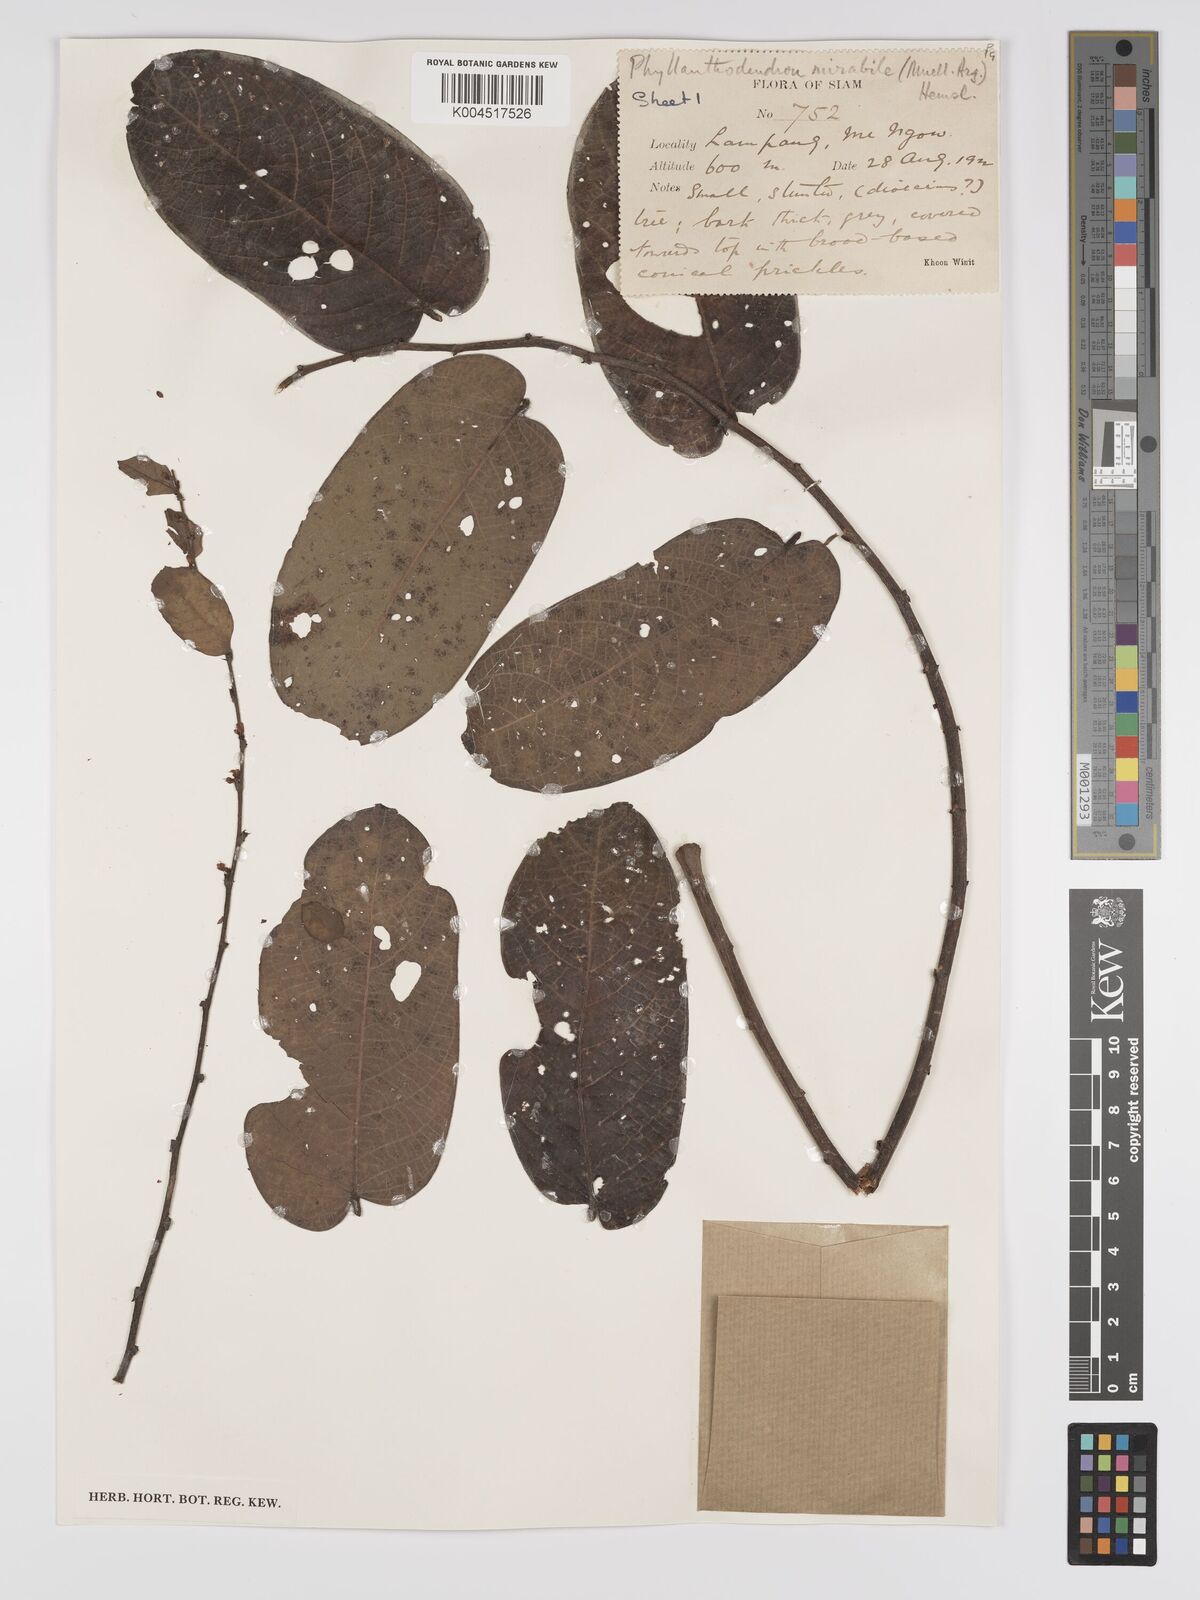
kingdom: Plantae
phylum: Tracheophyta
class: Magnoliopsida
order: Malpighiales
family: Phyllanthaceae
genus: Phyllanthus
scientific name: Phyllanthus mirabilis
